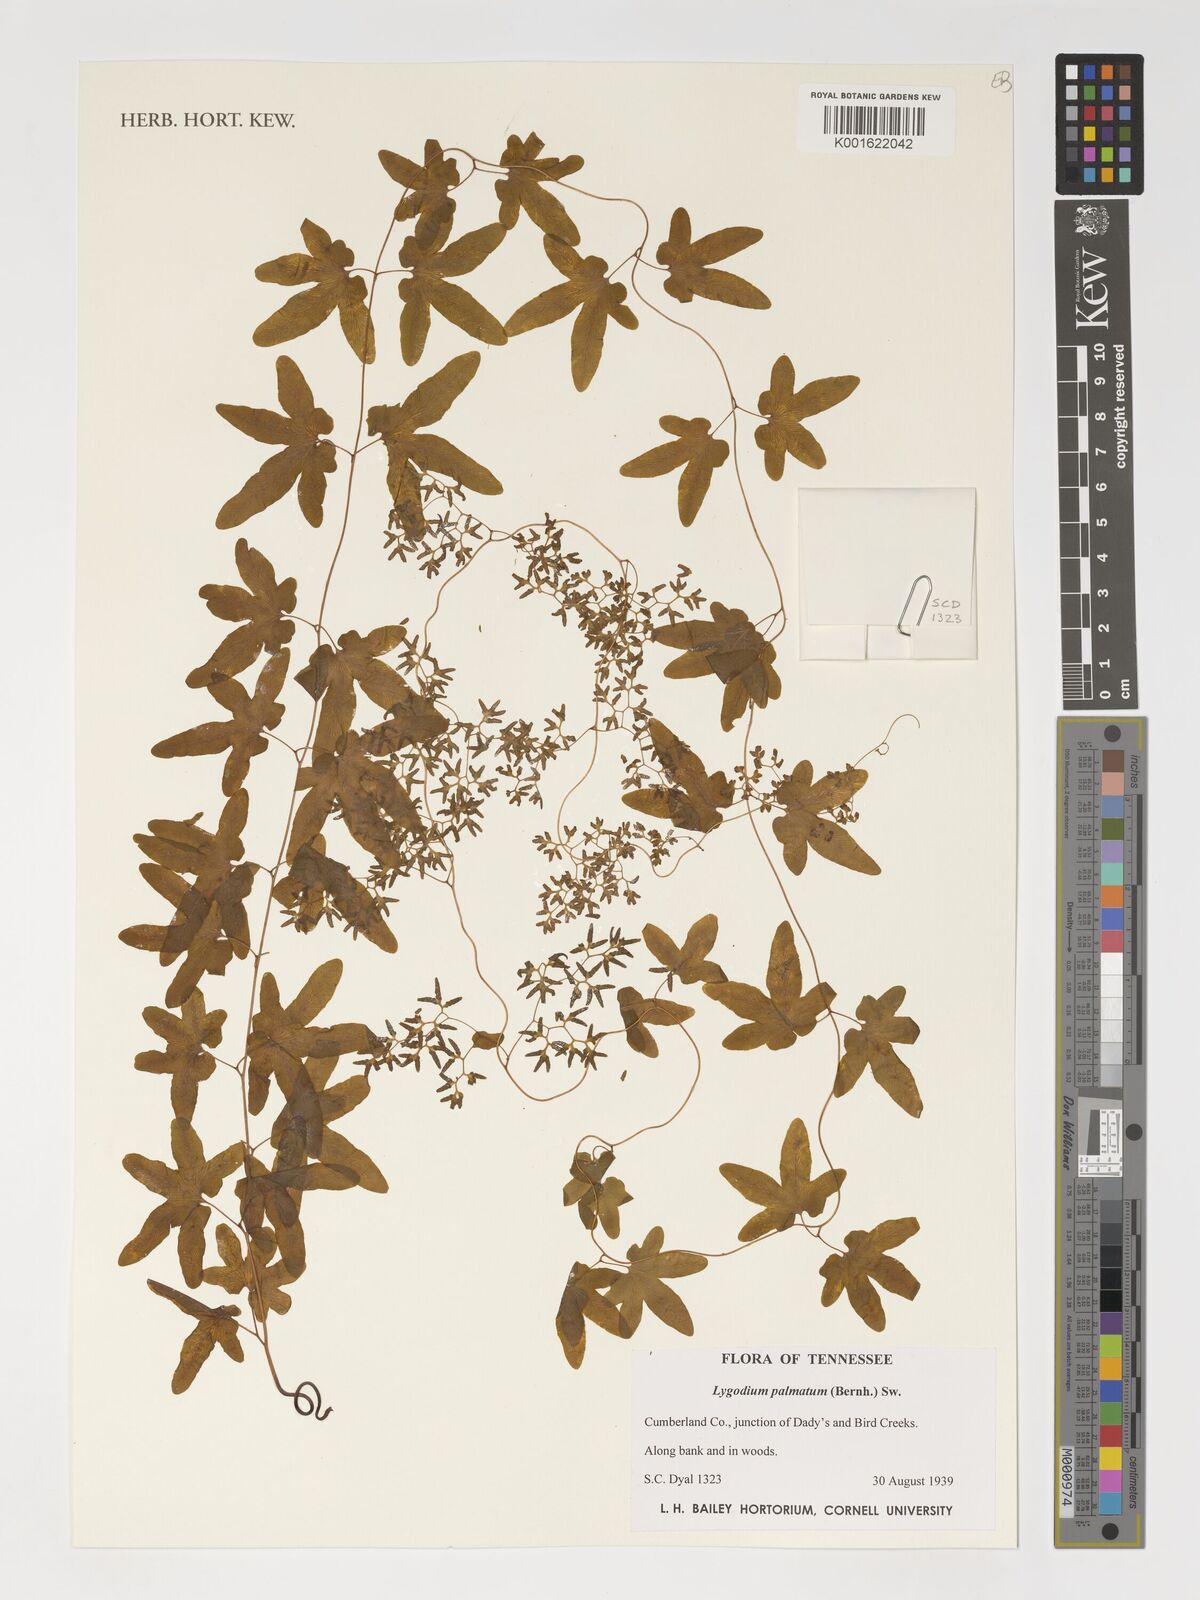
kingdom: Plantae
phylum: Tracheophyta
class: Polypodiopsida
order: Schizaeales
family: Lygodiaceae
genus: Lygodium
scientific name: Lygodium palmatum
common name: American climbing fern
